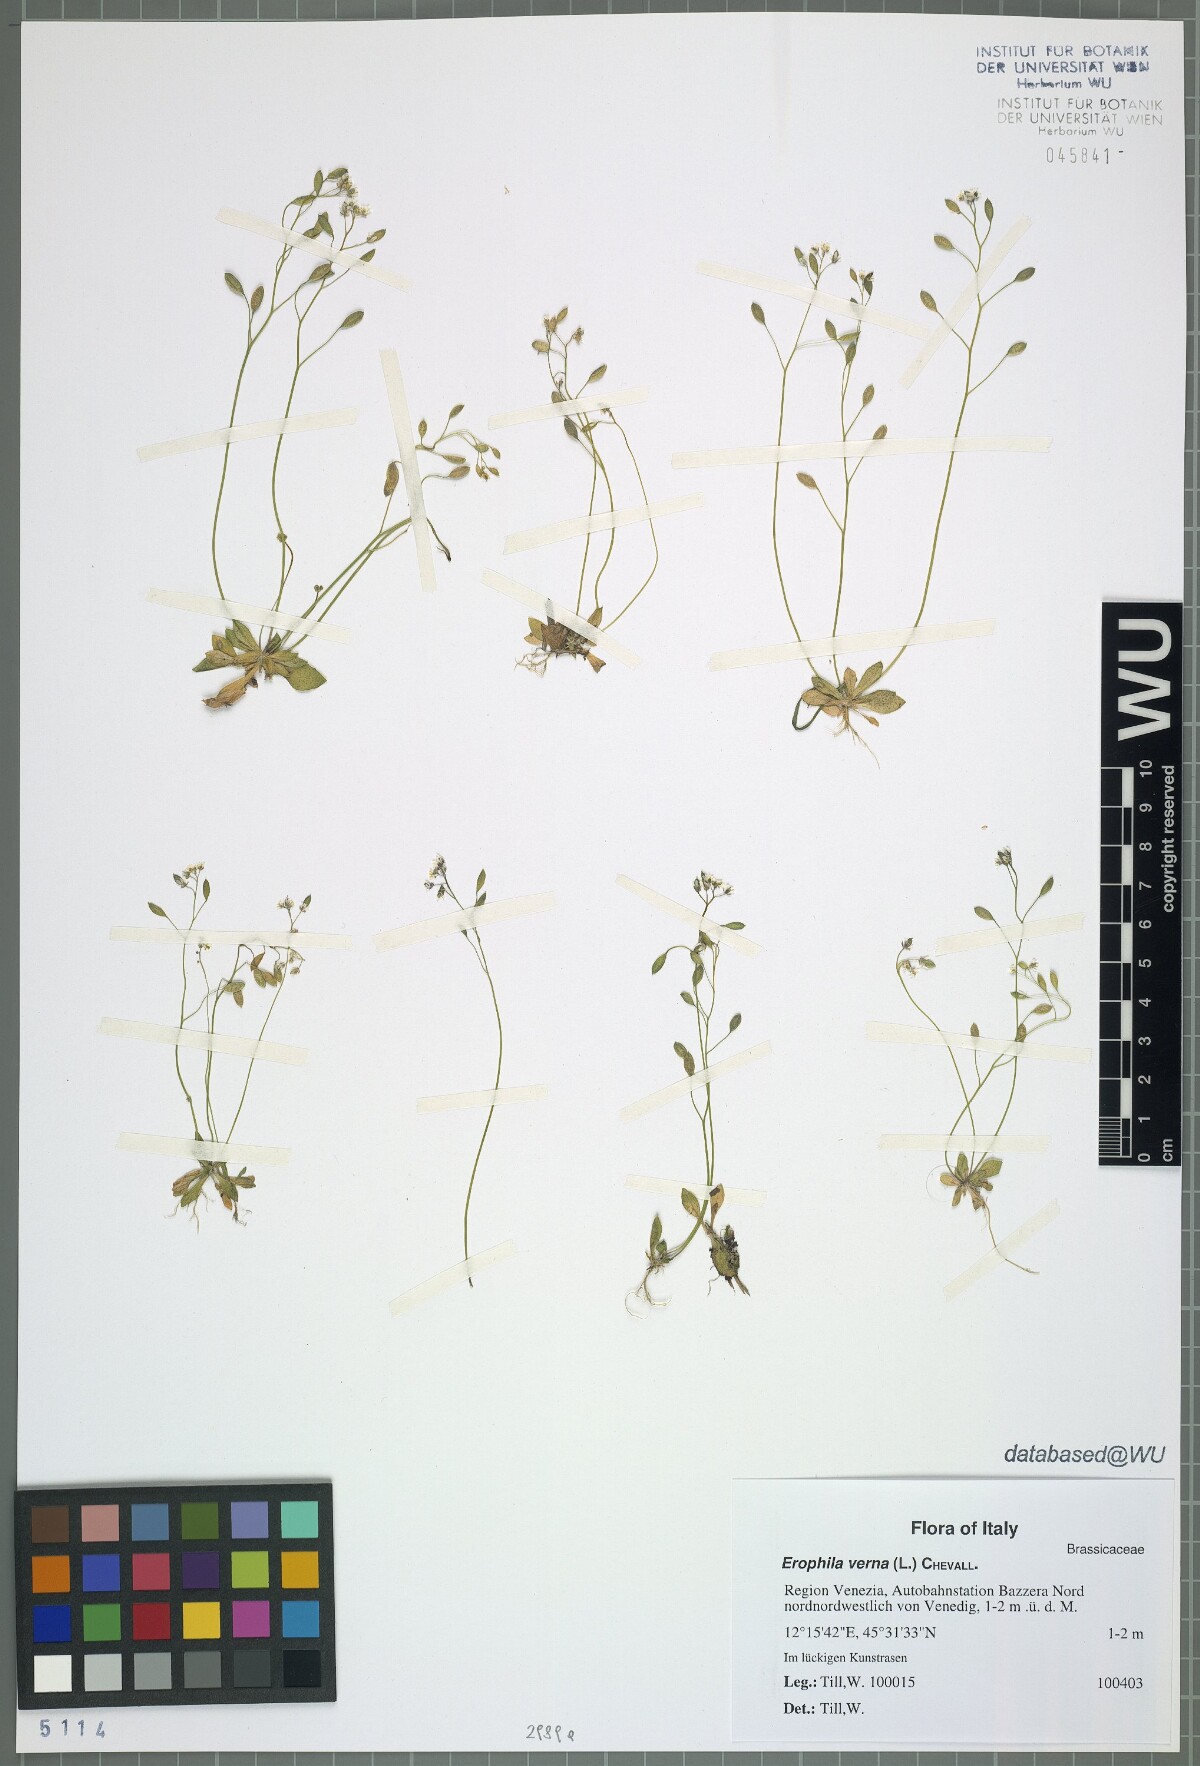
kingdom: Plantae
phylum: Tracheophyta
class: Magnoliopsida
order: Brassicales
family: Brassicaceae
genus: Draba
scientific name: Draba verna
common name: Spring draba
